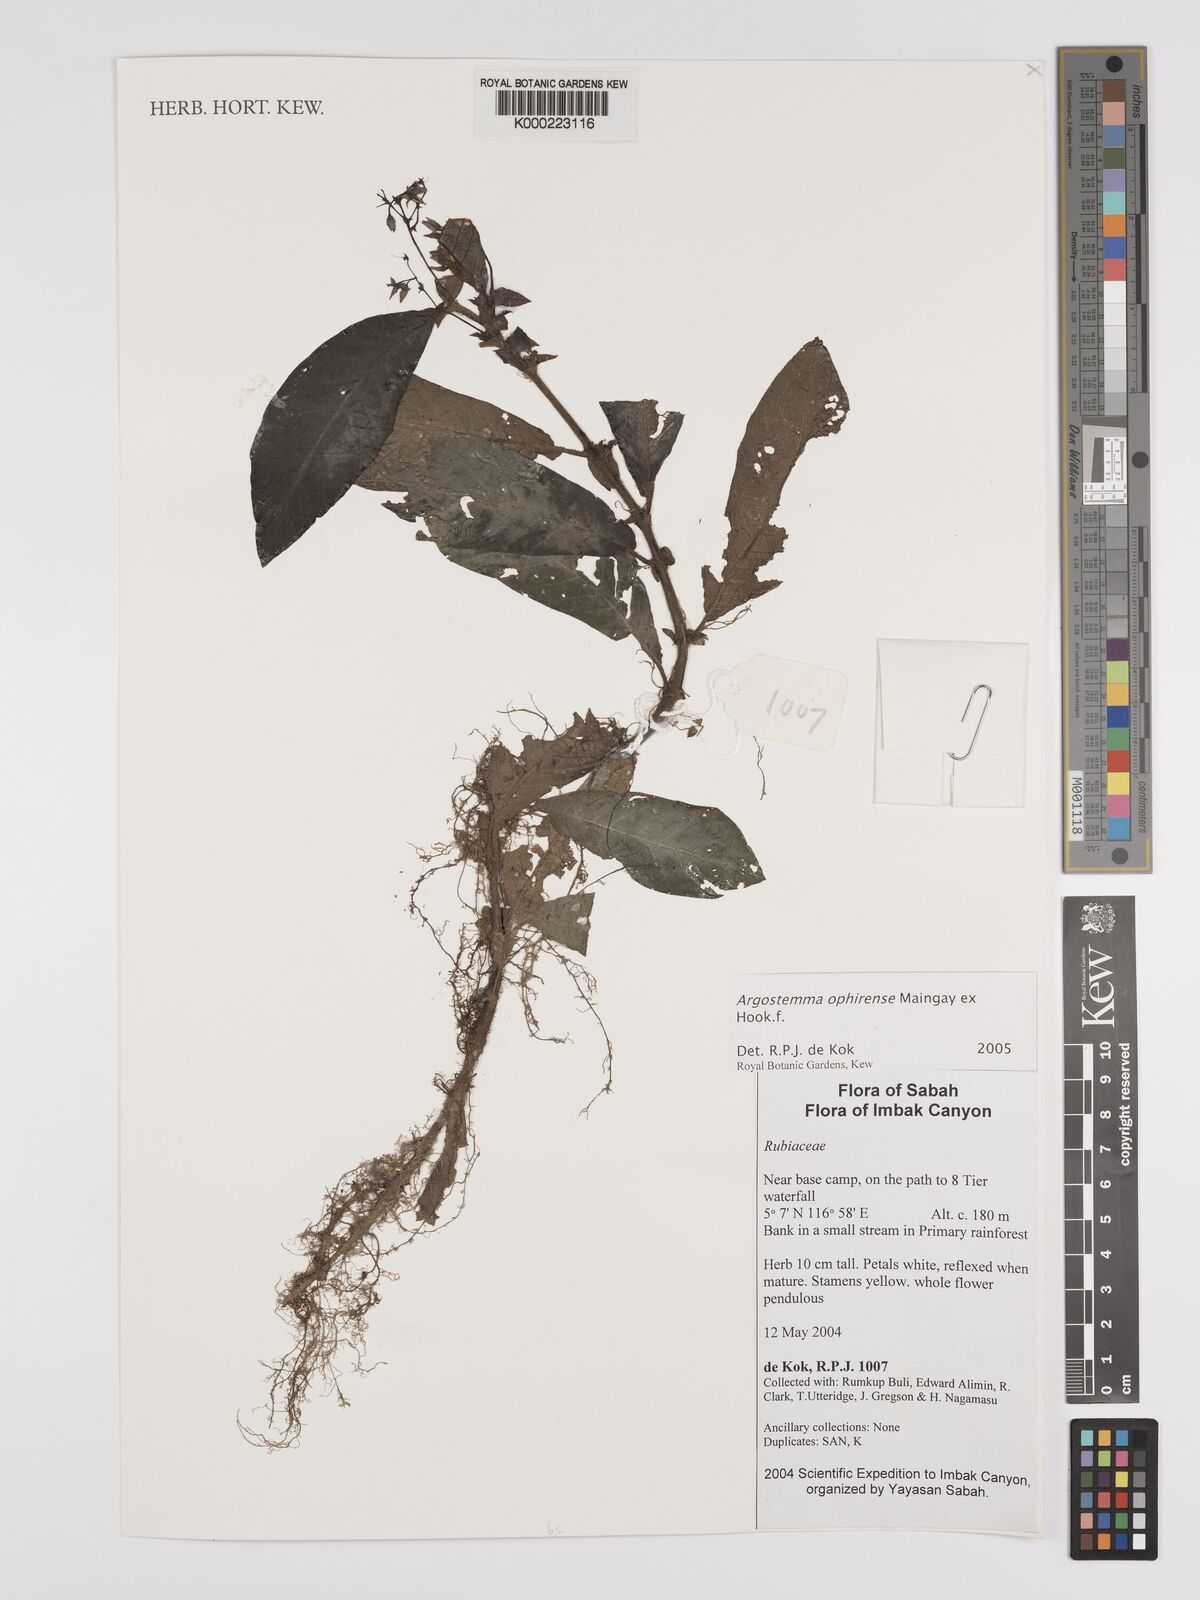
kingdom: Plantae
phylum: Tracheophyta
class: Magnoliopsida
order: Gentianales
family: Rubiaceae
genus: Argostemma
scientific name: Argostemma ophirense
